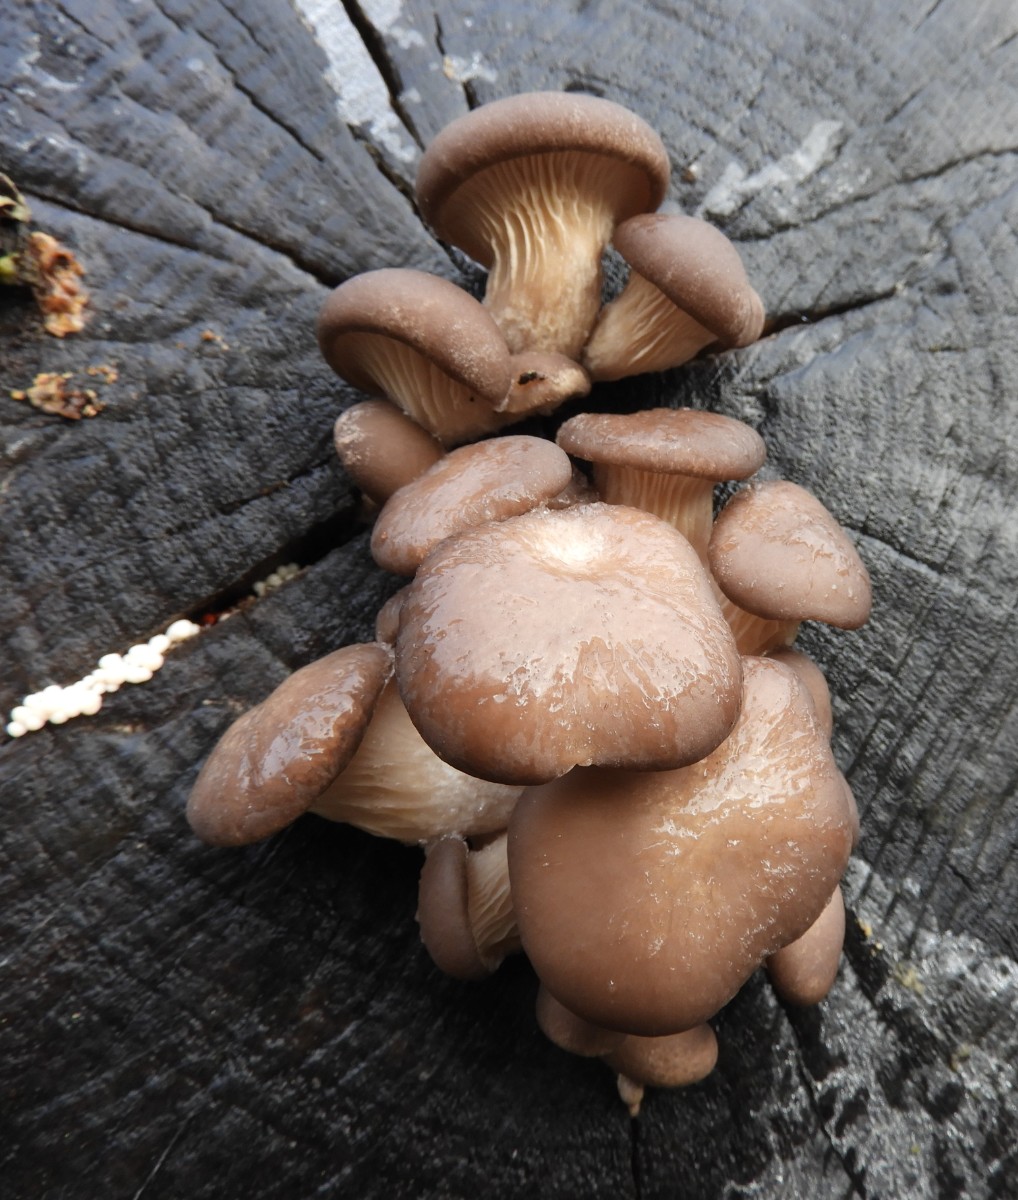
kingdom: Fungi
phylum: Basidiomycota
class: Agaricomycetes
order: Agaricales
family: Pleurotaceae
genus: Pleurotus
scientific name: Pleurotus ostreatus
